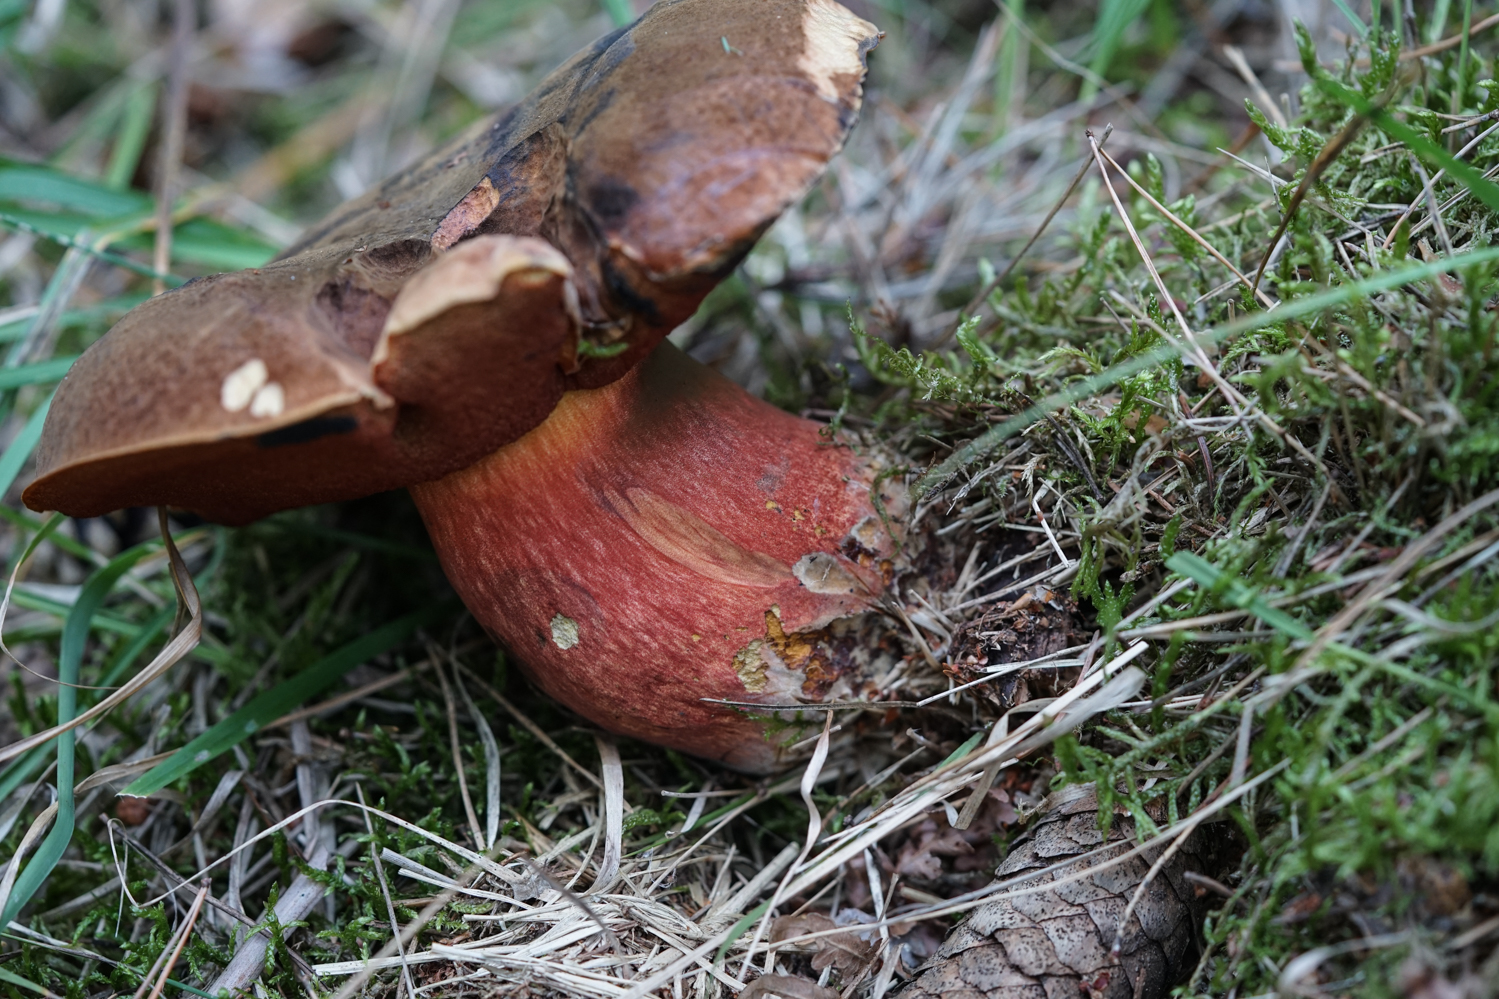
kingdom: Fungi
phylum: Basidiomycota
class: Agaricomycetes
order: Boletales
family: Boletaceae
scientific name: Boletaceae
